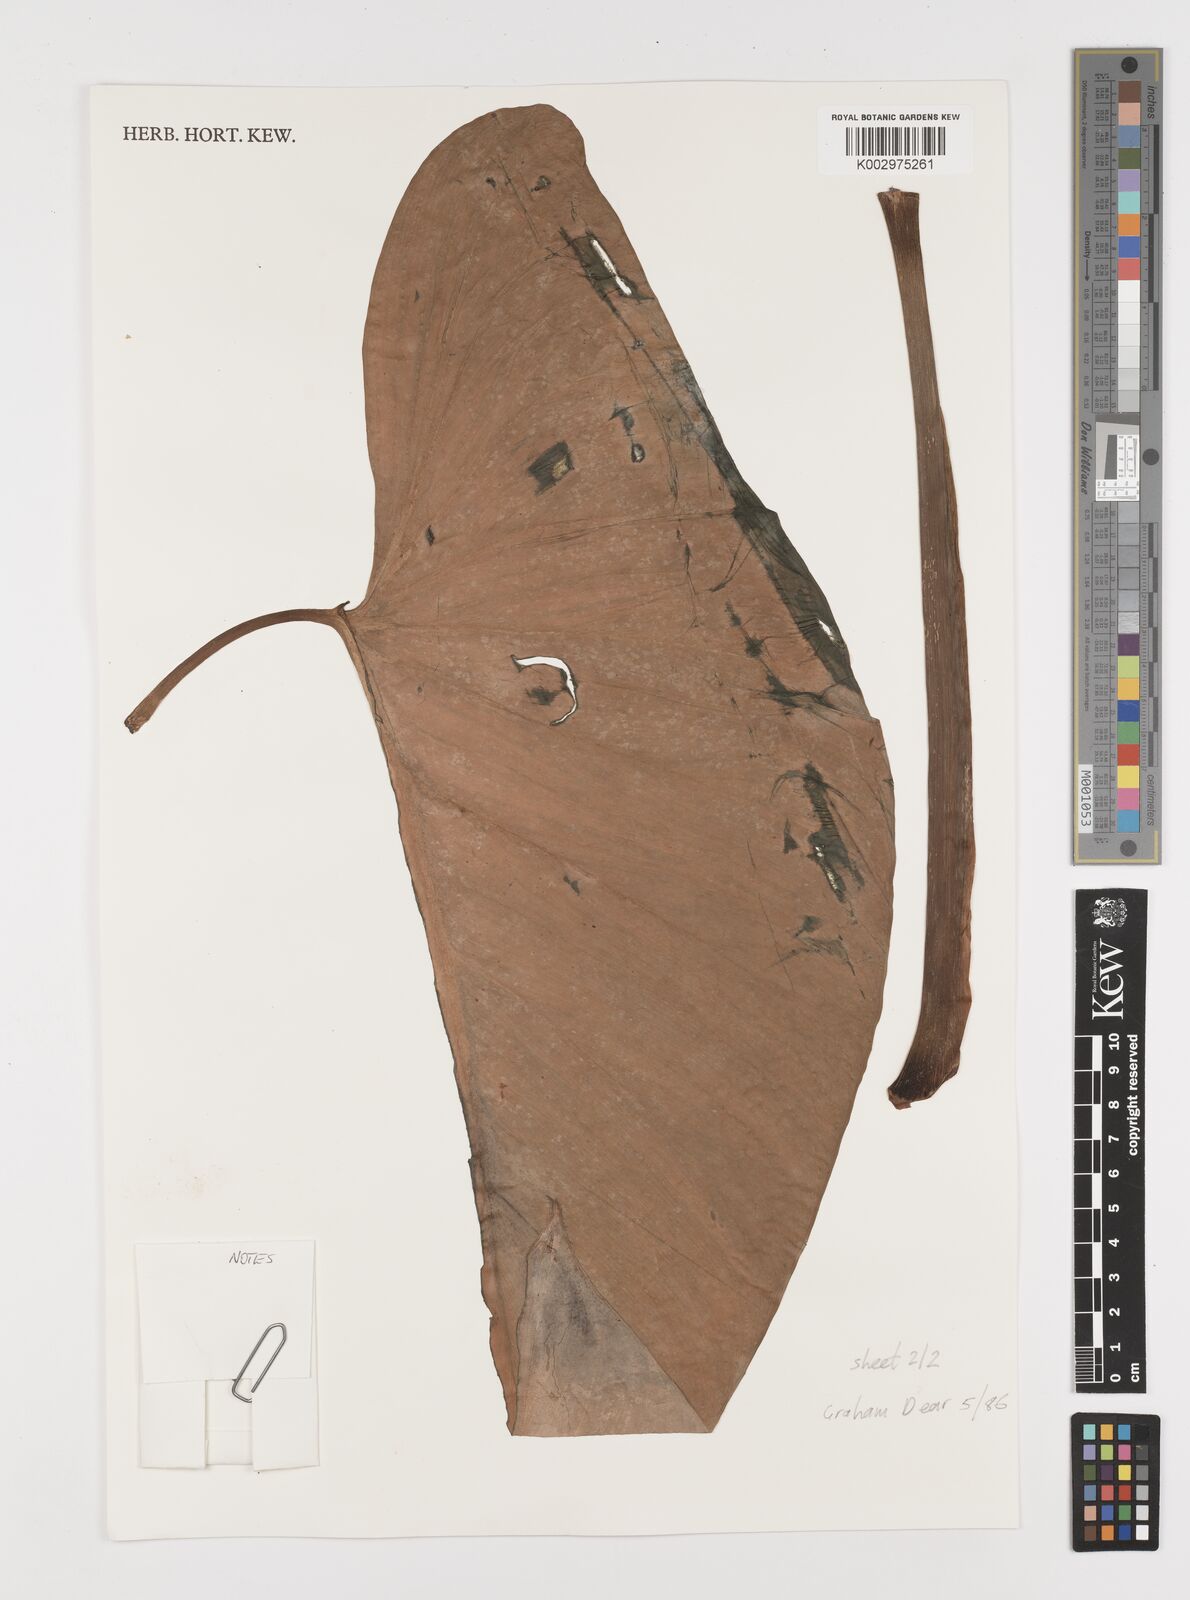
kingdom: Plantae
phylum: Tracheophyta
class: Liliopsida
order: Alismatales
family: Araceae
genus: Homalomena
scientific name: Homalomena
